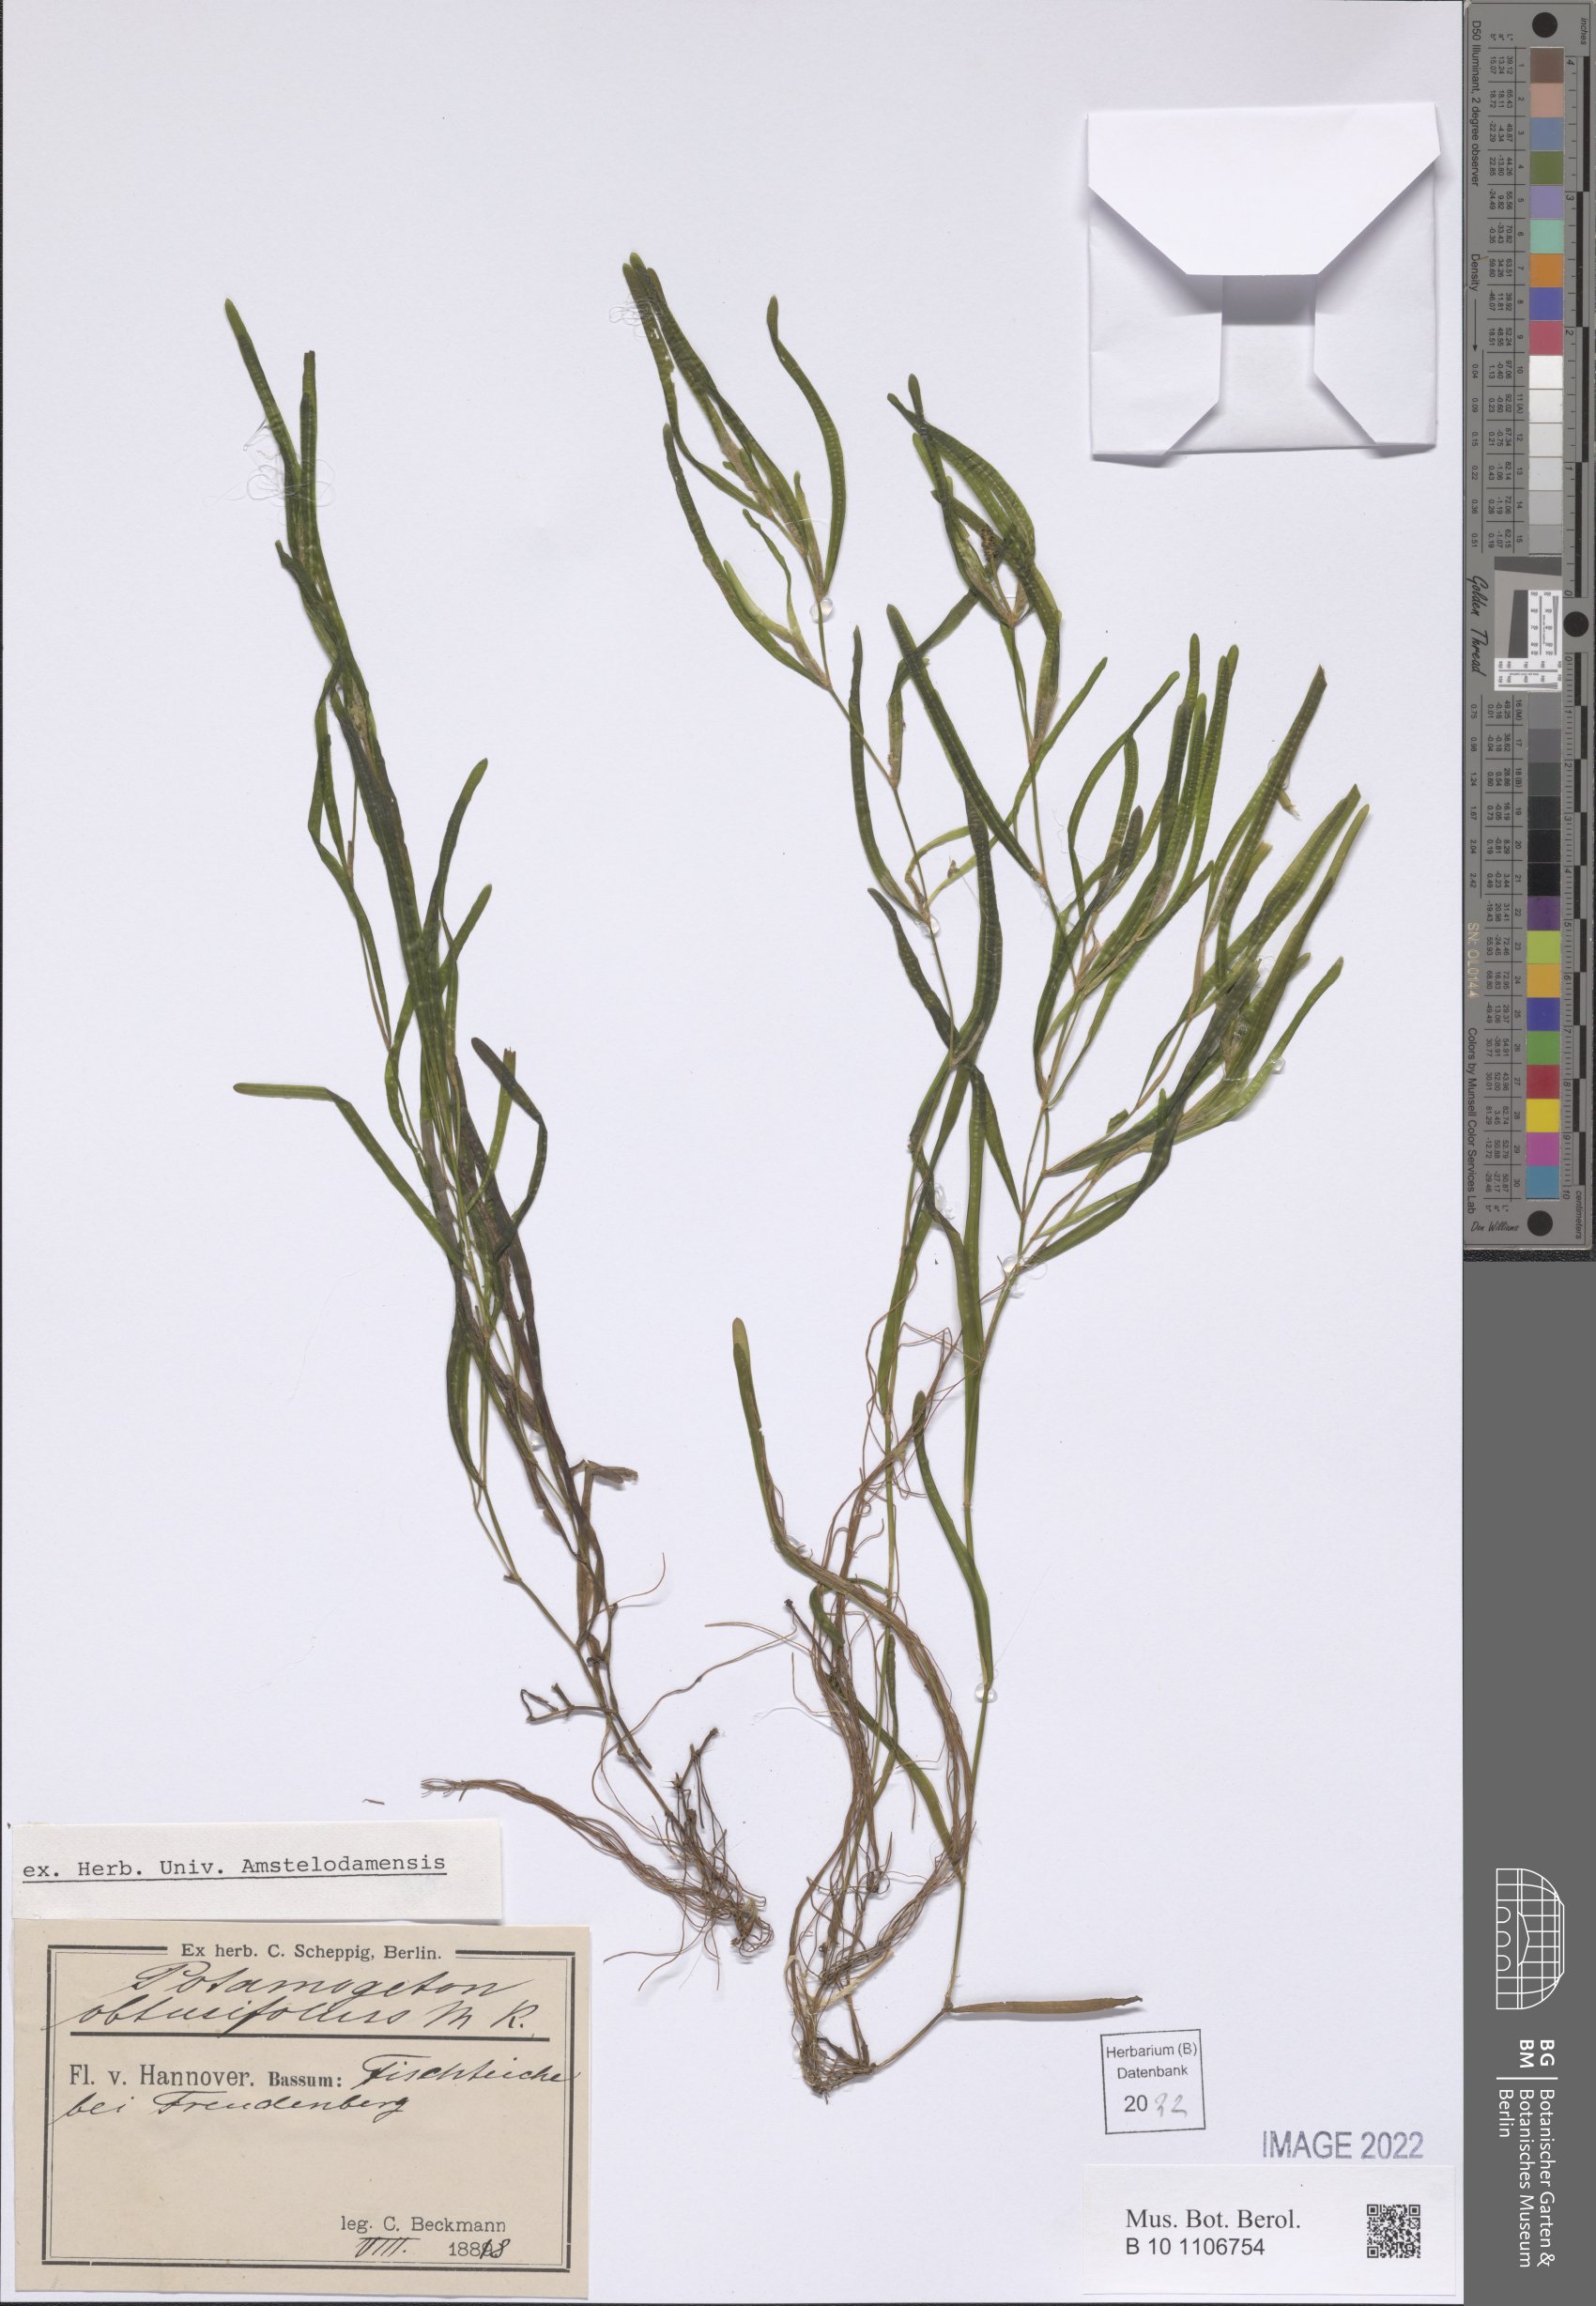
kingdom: Plantae
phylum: Tracheophyta
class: Liliopsida
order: Alismatales
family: Potamogetonaceae
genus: Potamogeton
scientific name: Potamogeton obtusifolius
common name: Blunt-leaved pondweed
